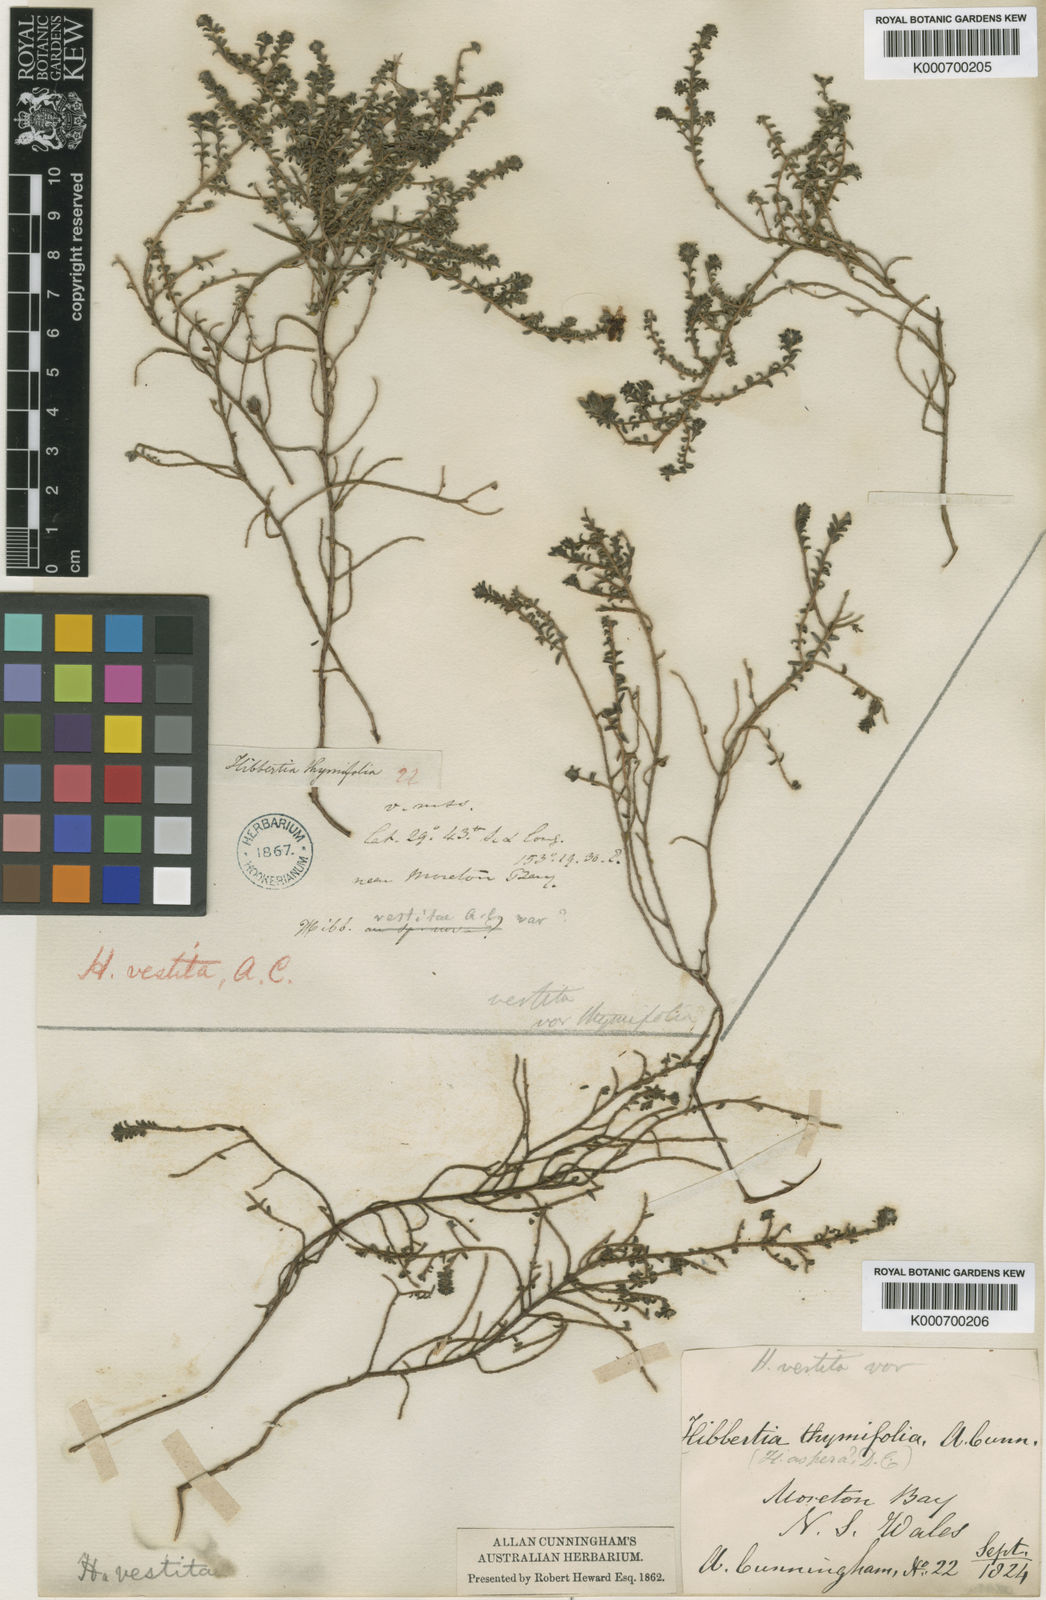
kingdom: Plantae
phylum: Tracheophyta
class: Magnoliopsida
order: Dilleniales
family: Dilleniaceae
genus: Hibbertia
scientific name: Hibbertia vestita
